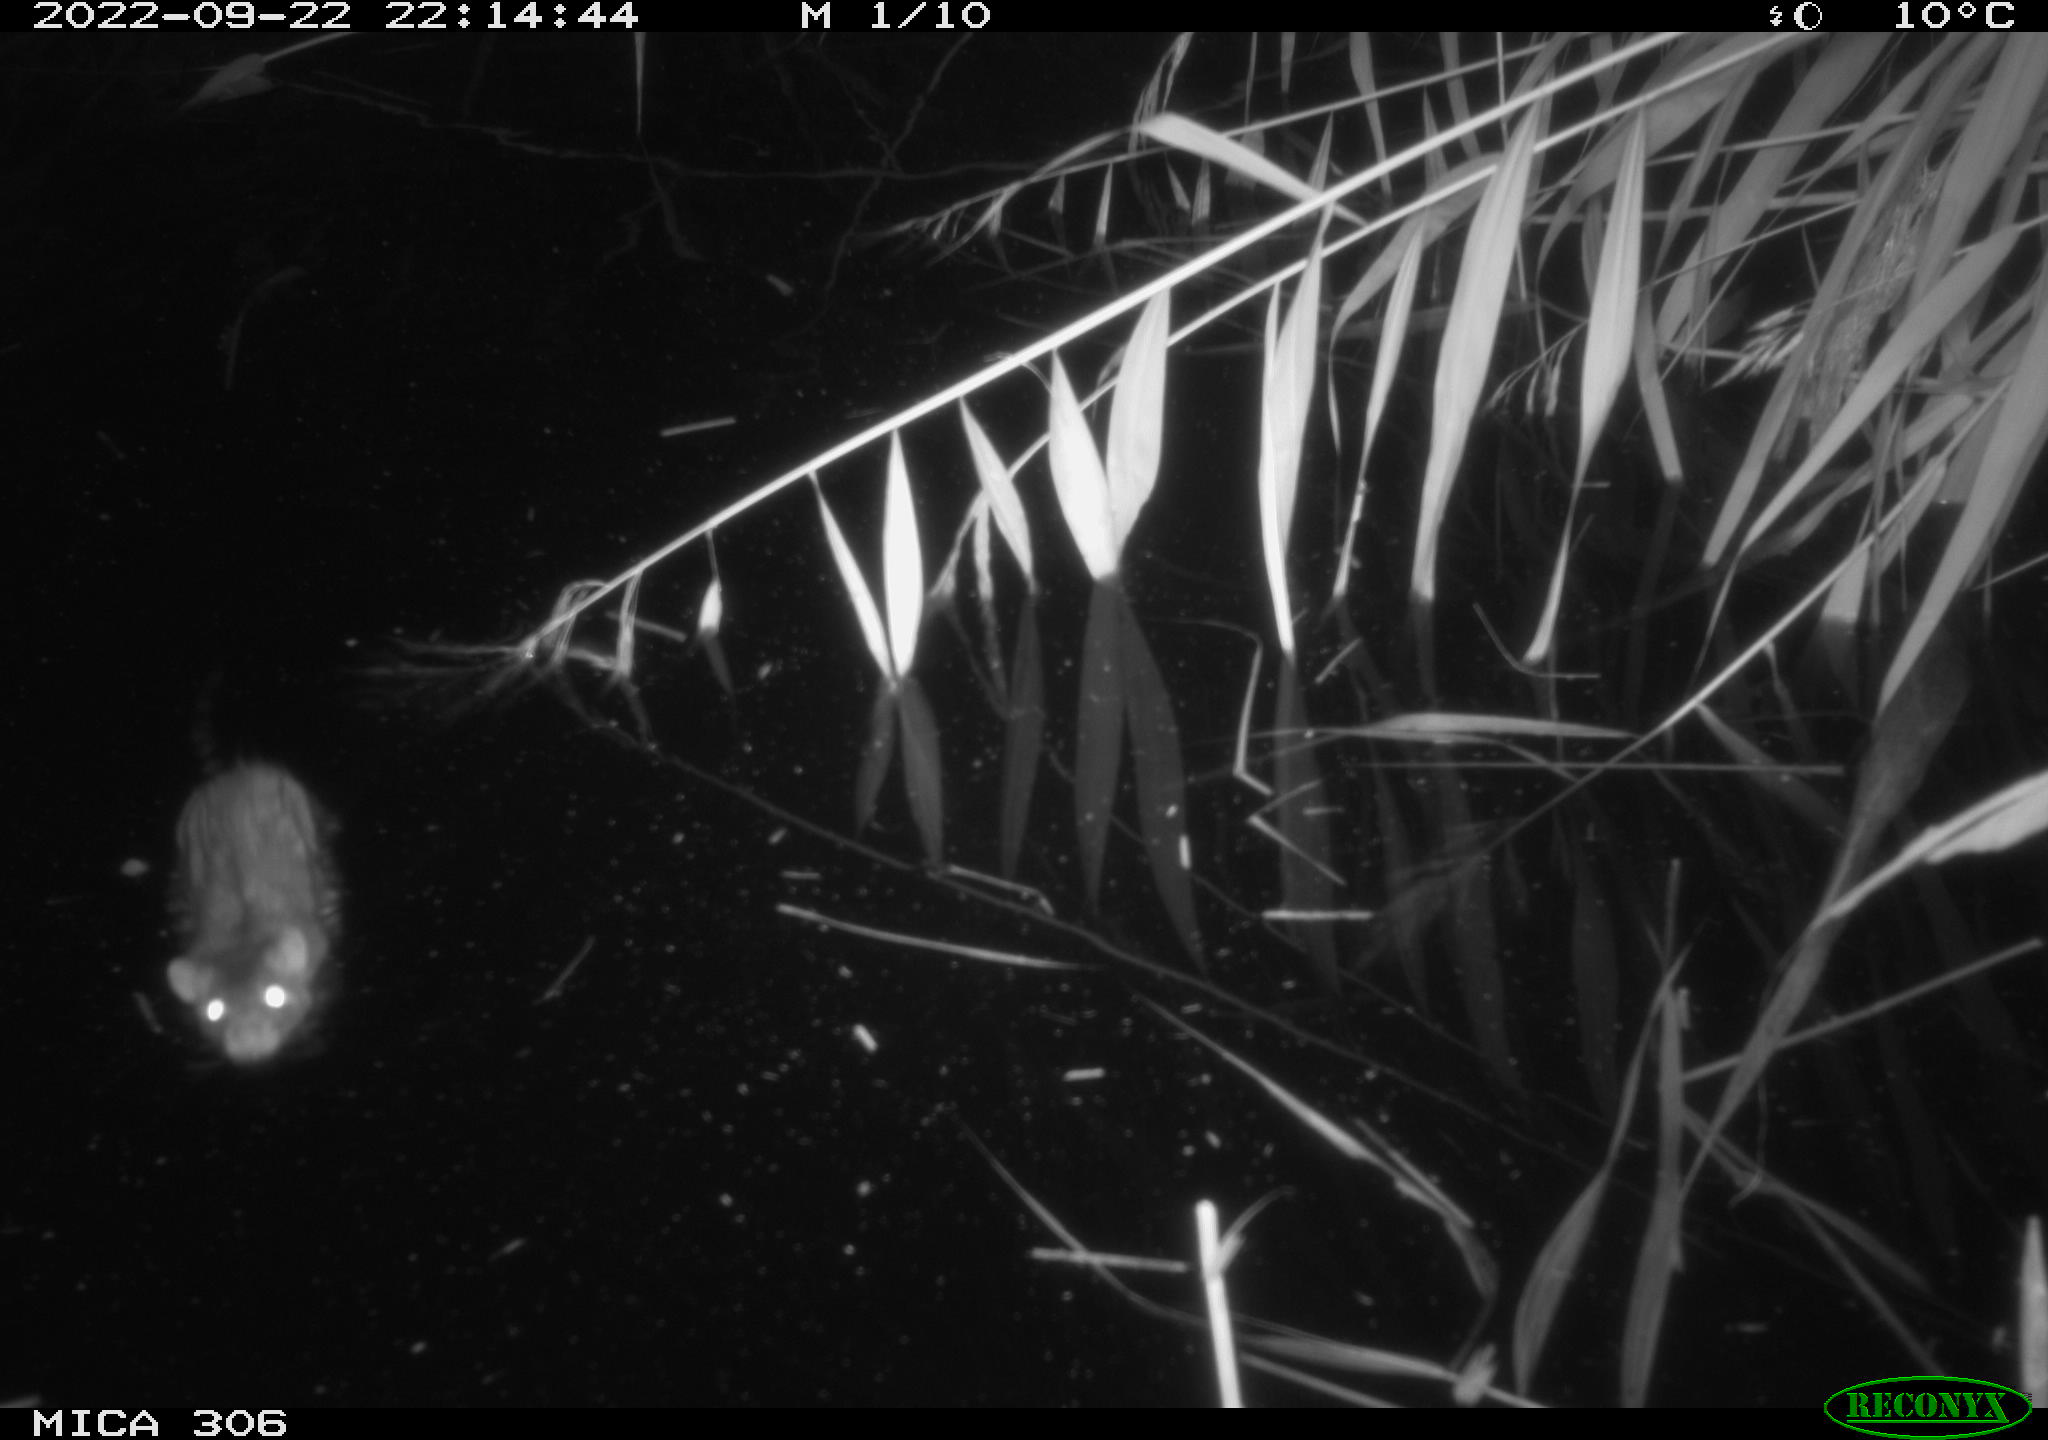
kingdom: Animalia
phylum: Chordata
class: Mammalia
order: Rodentia
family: Muridae
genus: Rattus
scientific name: Rattus norvegicus
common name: Brown rat
